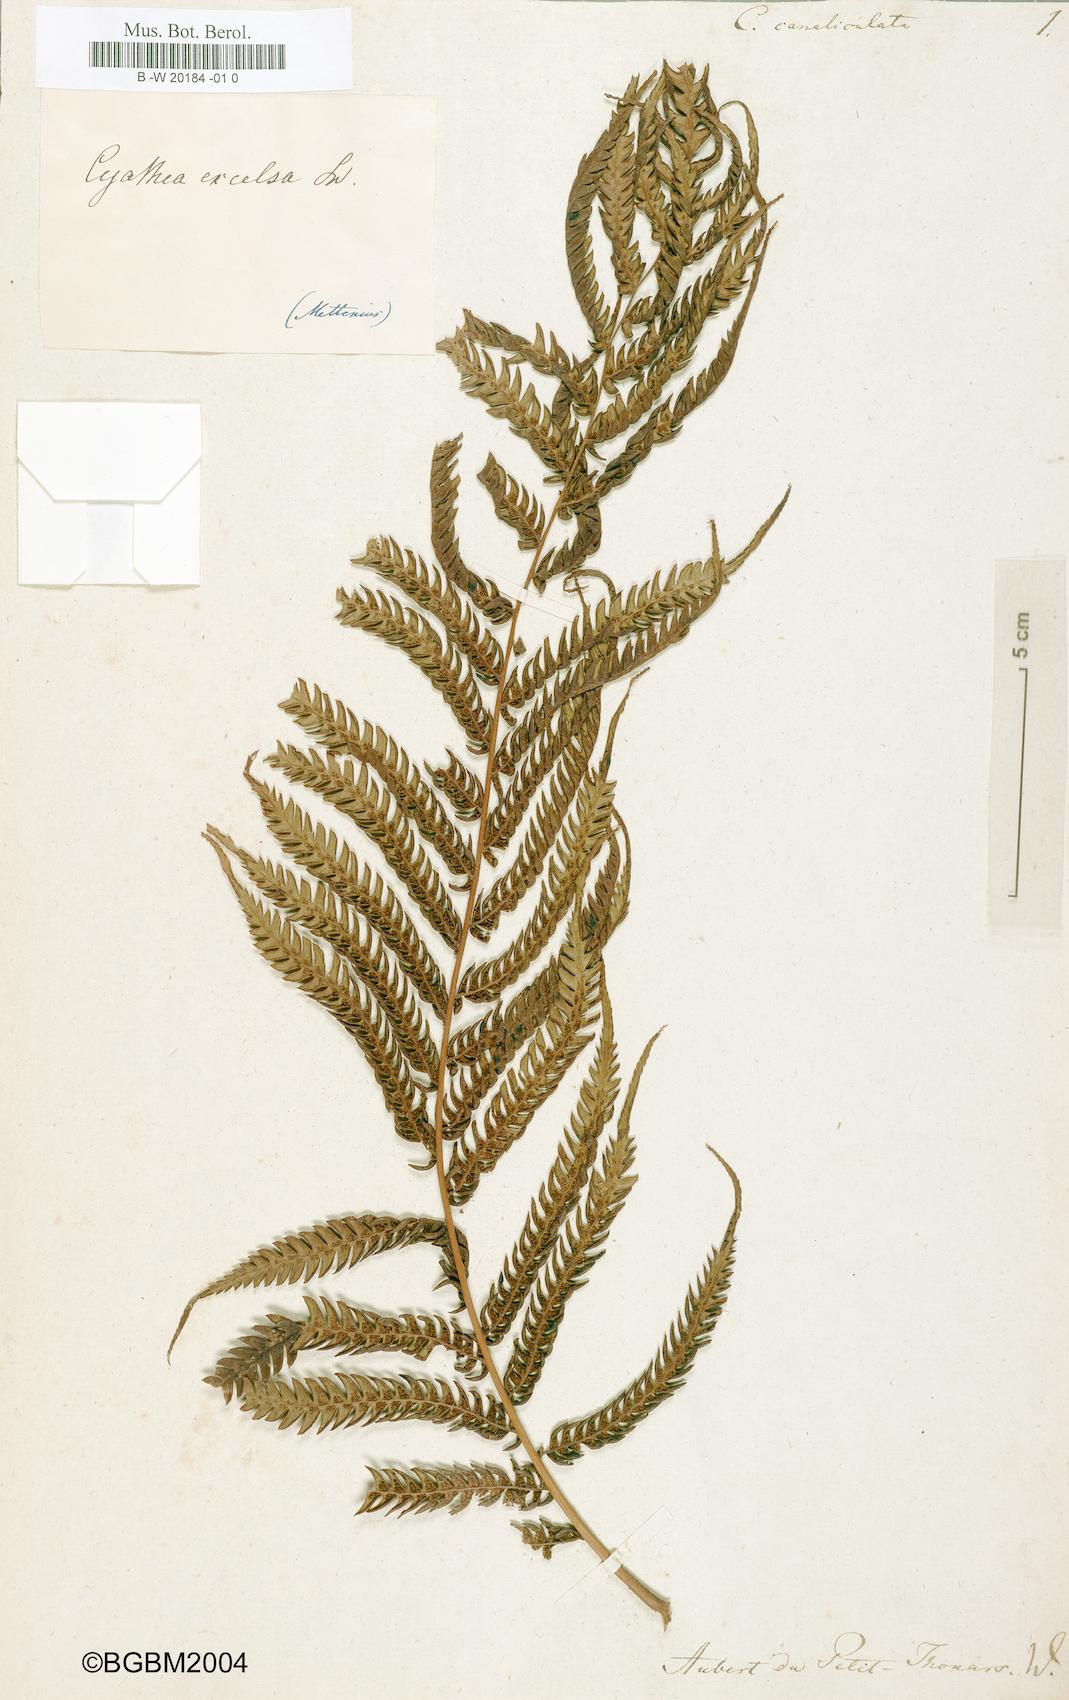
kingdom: Plantae
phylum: Tracheophyta
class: Polypodiopsida
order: Cyatheales
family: Cyatheaceae
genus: Alsophila
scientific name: Alsophila
